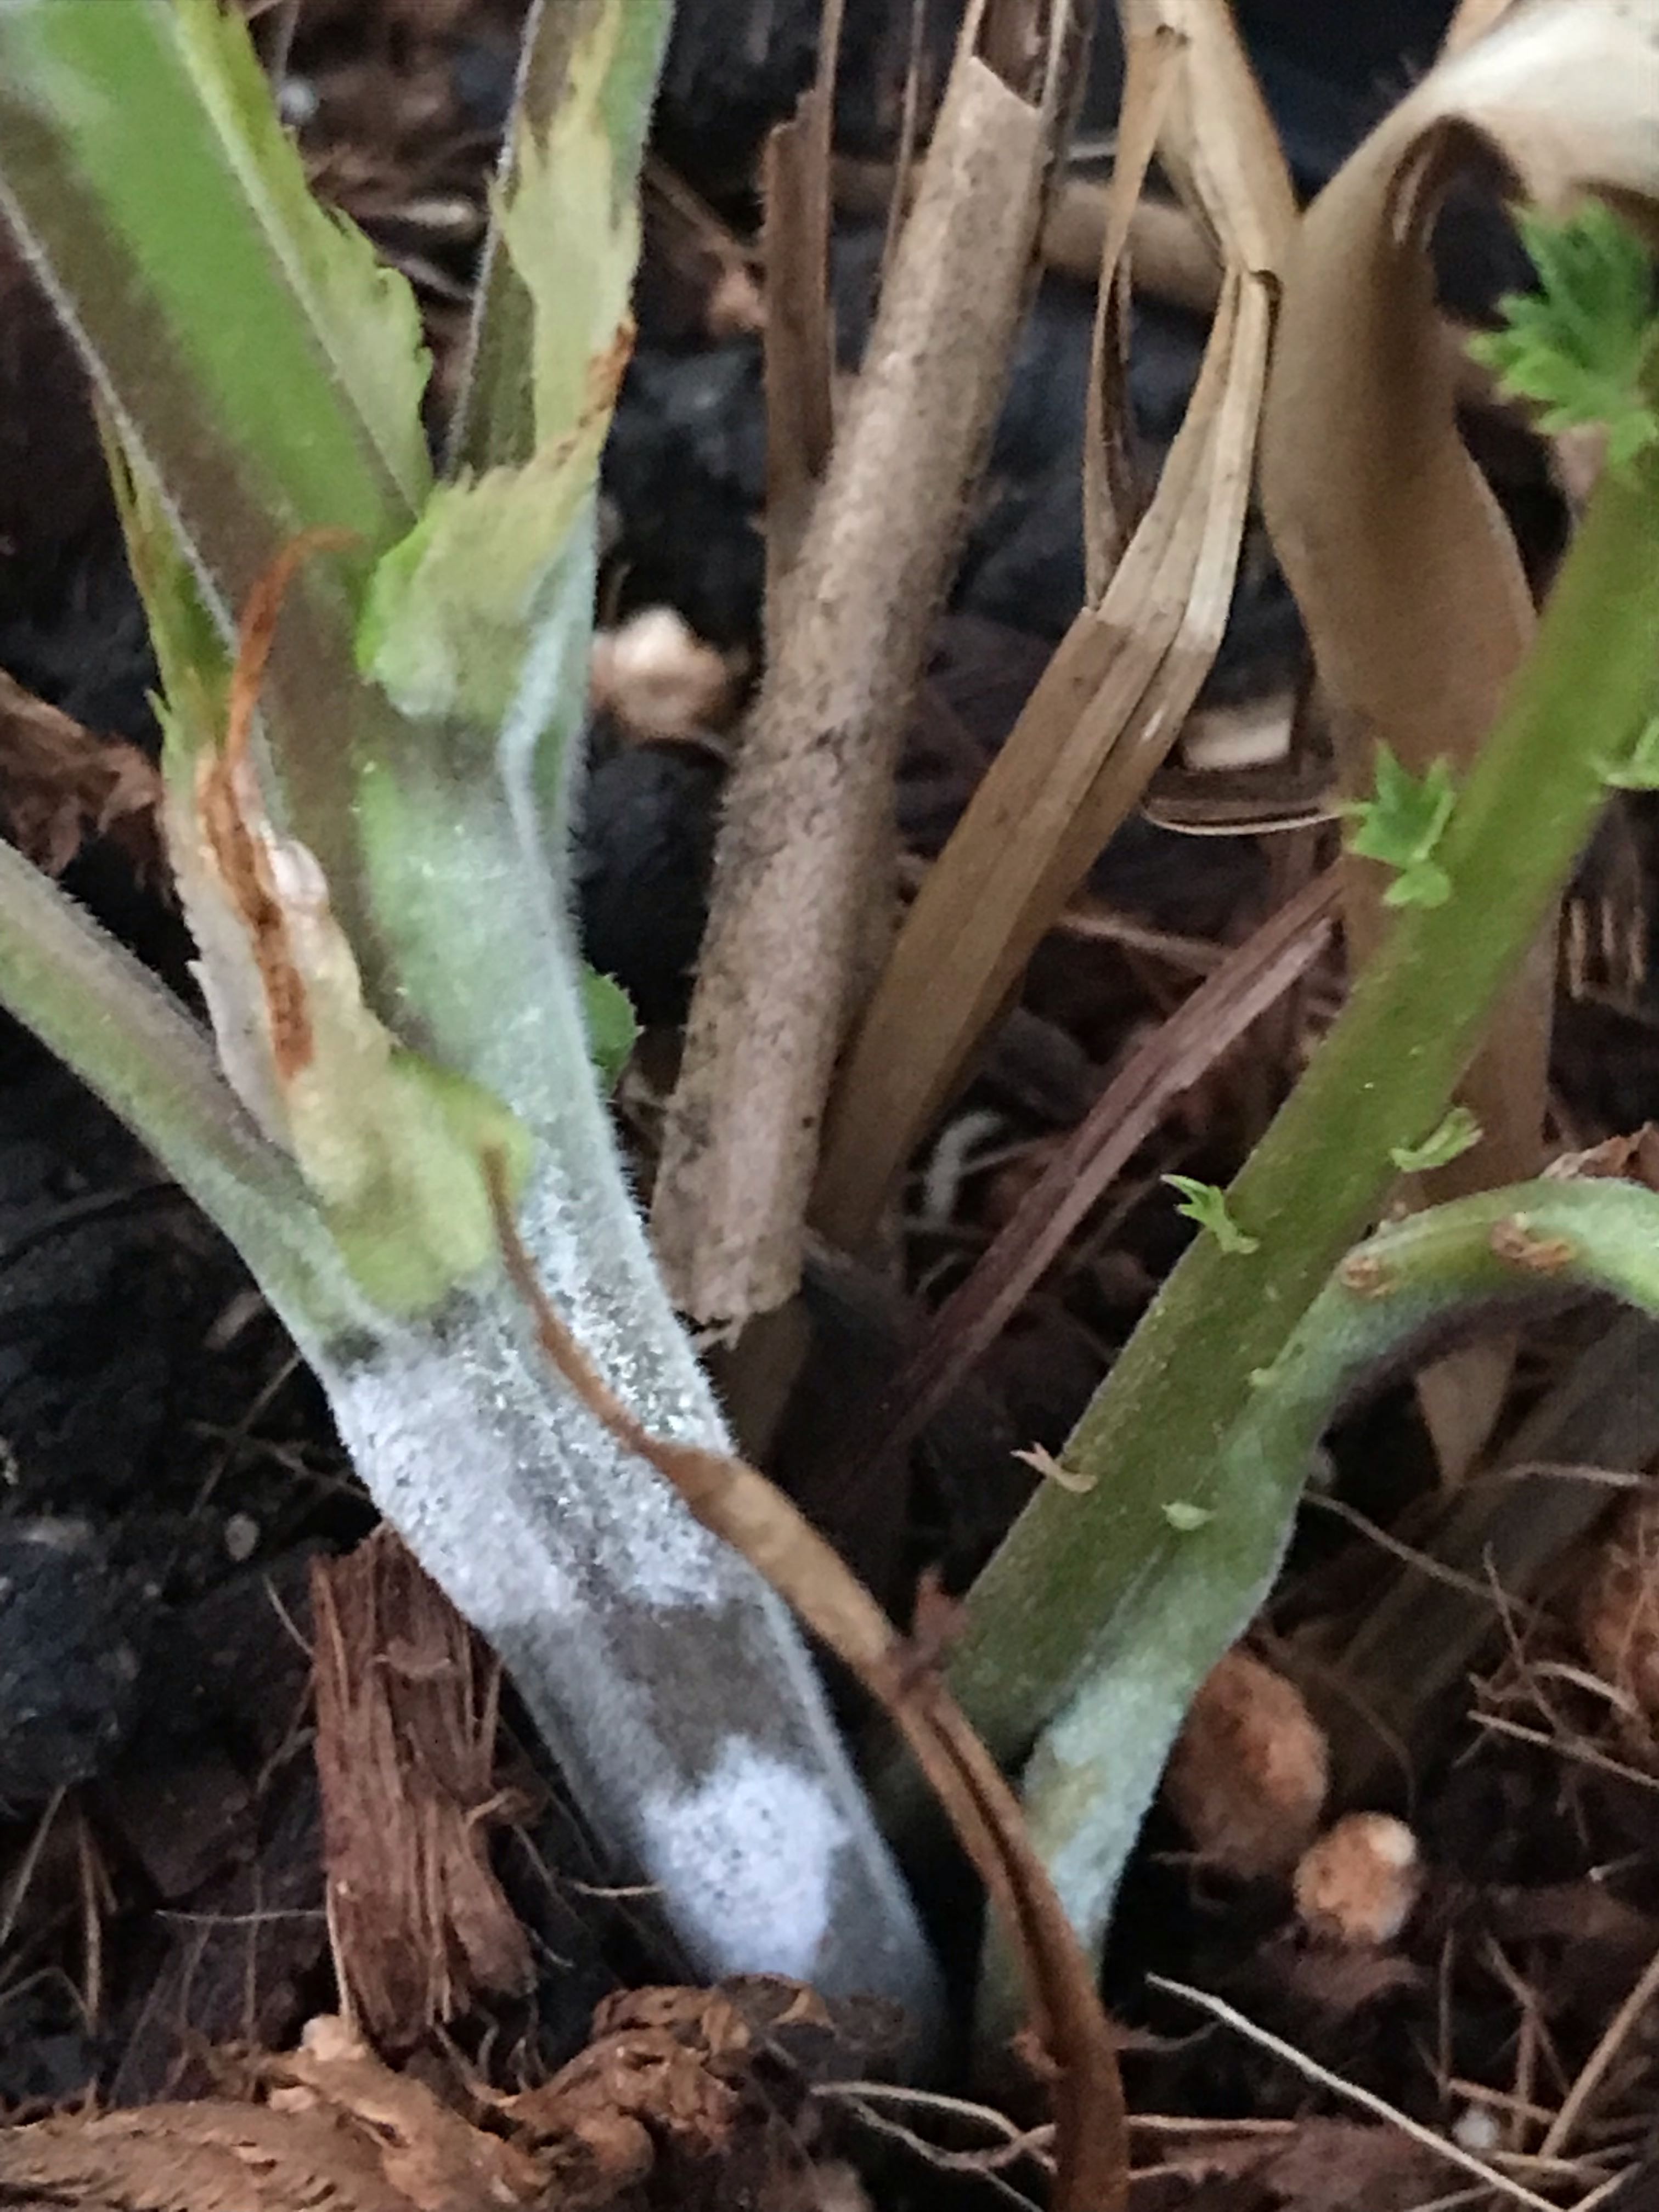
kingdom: Fungi
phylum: Ascomycota
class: Leotiomycetes
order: Helotiales
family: Erysiphaceae
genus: Podosphaera
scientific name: Podosphaera filipendulae
